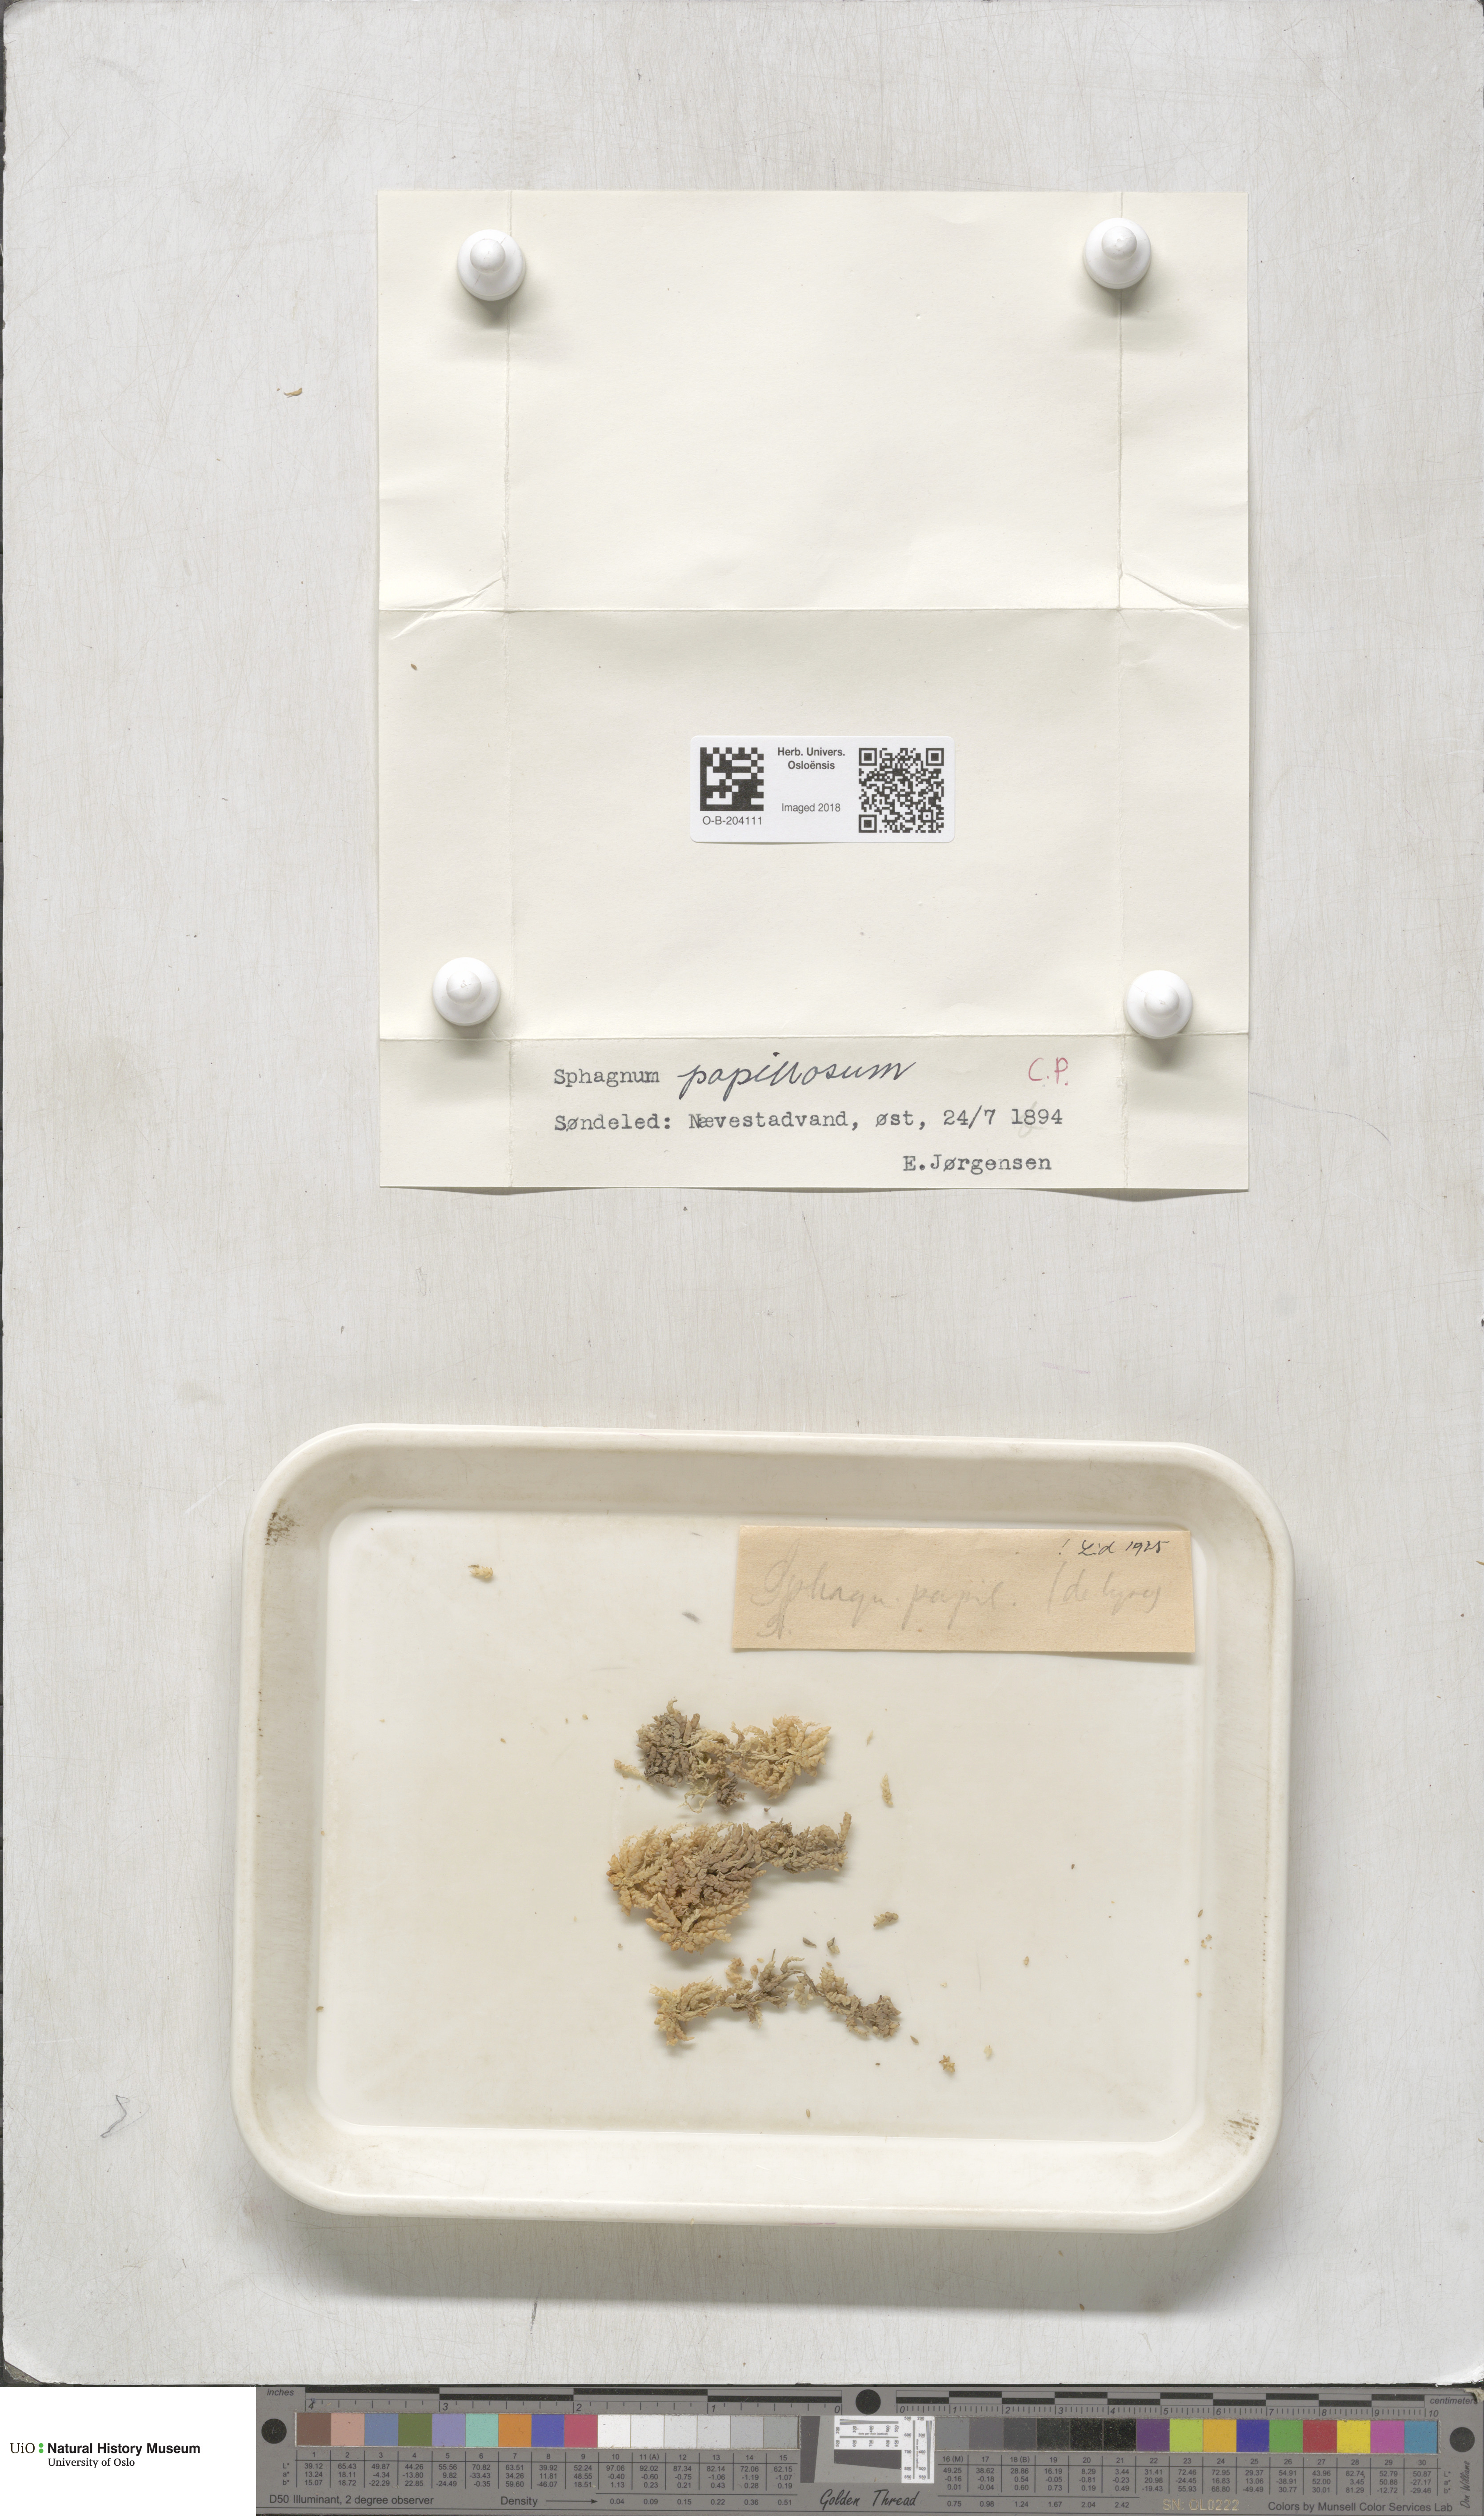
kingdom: Plantae
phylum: Bryophyta
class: Sphagnopsida
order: Sphagnales
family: Sphagnaceae
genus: Sphagnum
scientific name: Sphagnum papillosum
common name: Papillose peat moss
